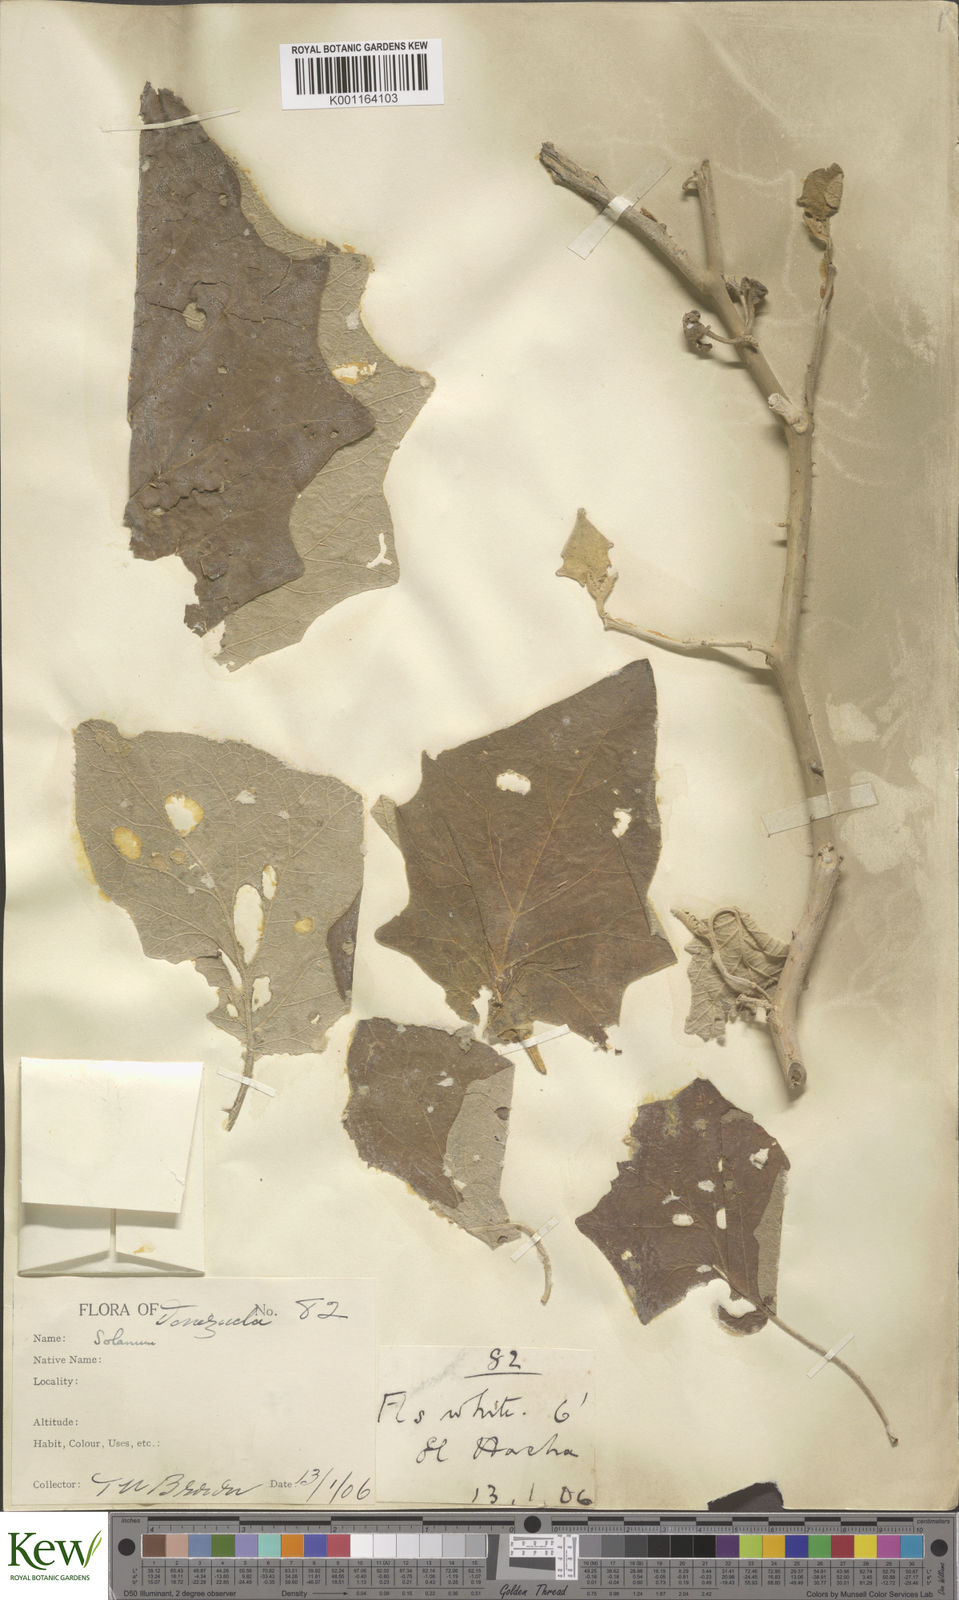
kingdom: Plantae
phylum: Tracheophyta
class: Magnoliopsida
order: Solanales
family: Solanaceae
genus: Solanum
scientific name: Solanum hirtum
